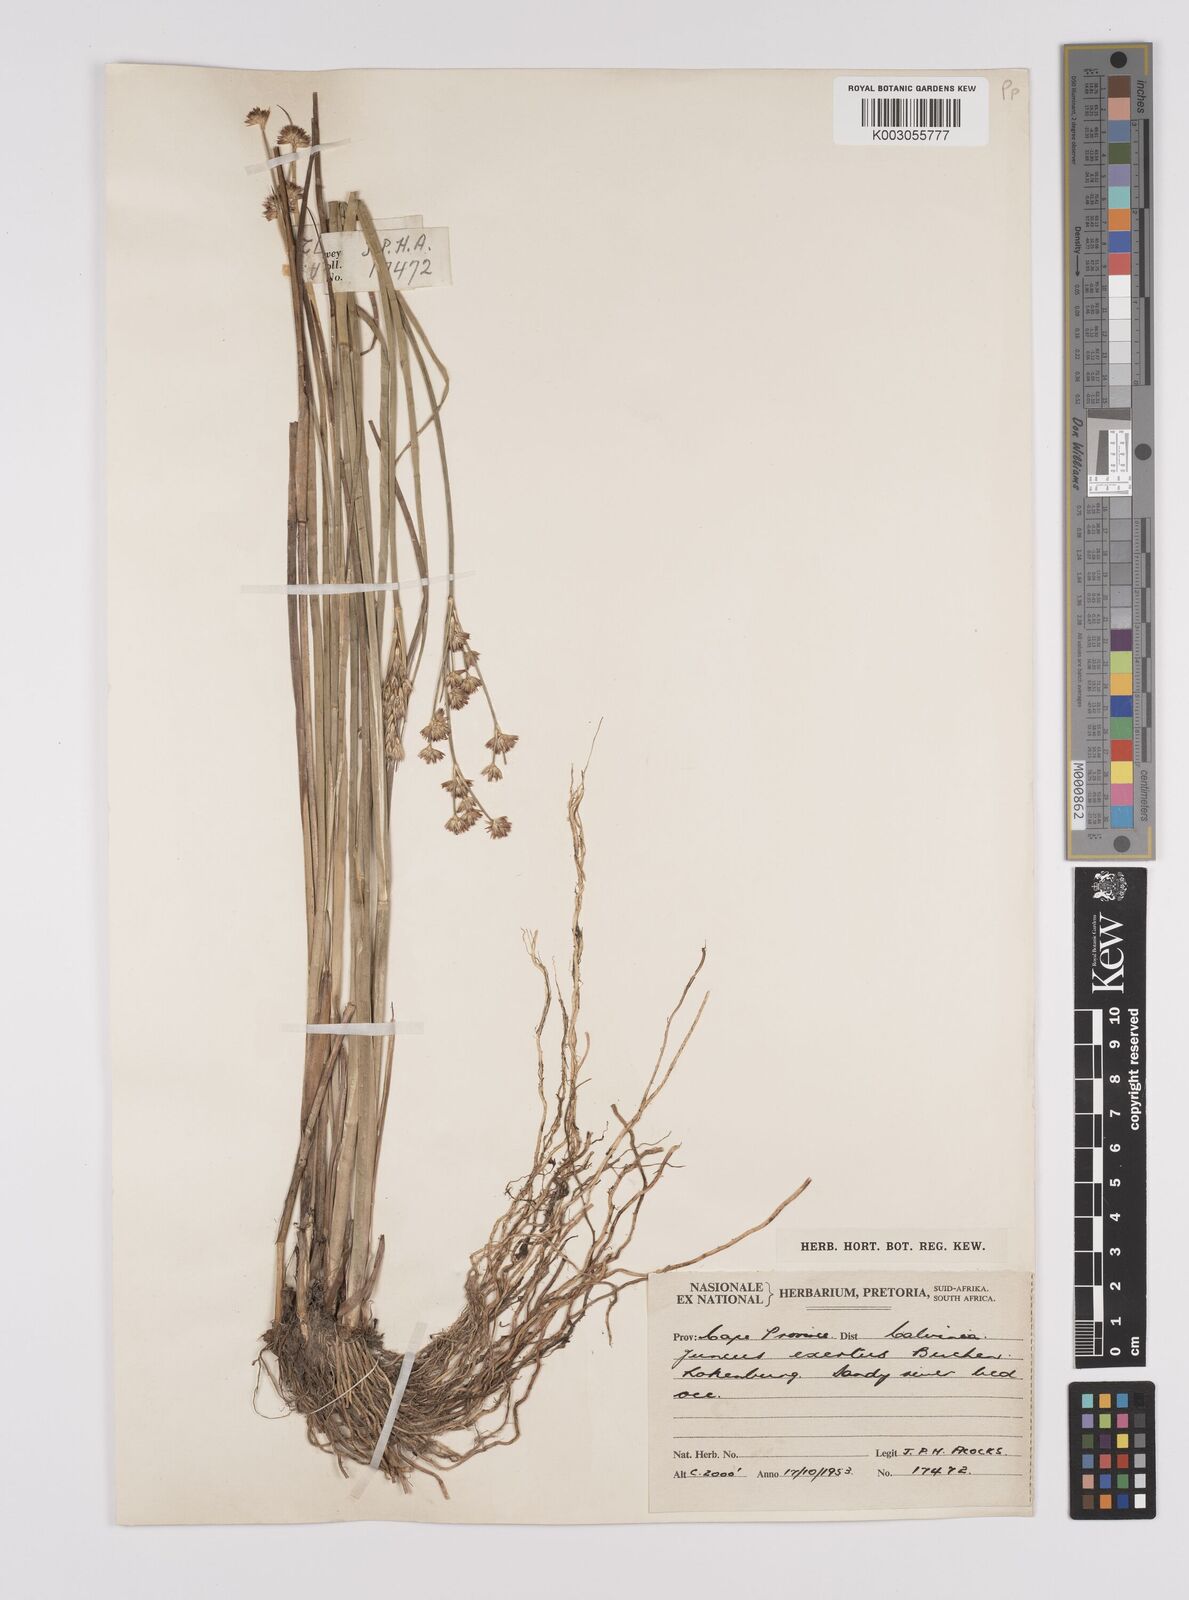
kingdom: Plantae
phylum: Tracheophyta
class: Liliopsida
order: Poales
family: Juncaceae
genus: Juncus
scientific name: Juncus exsertus
